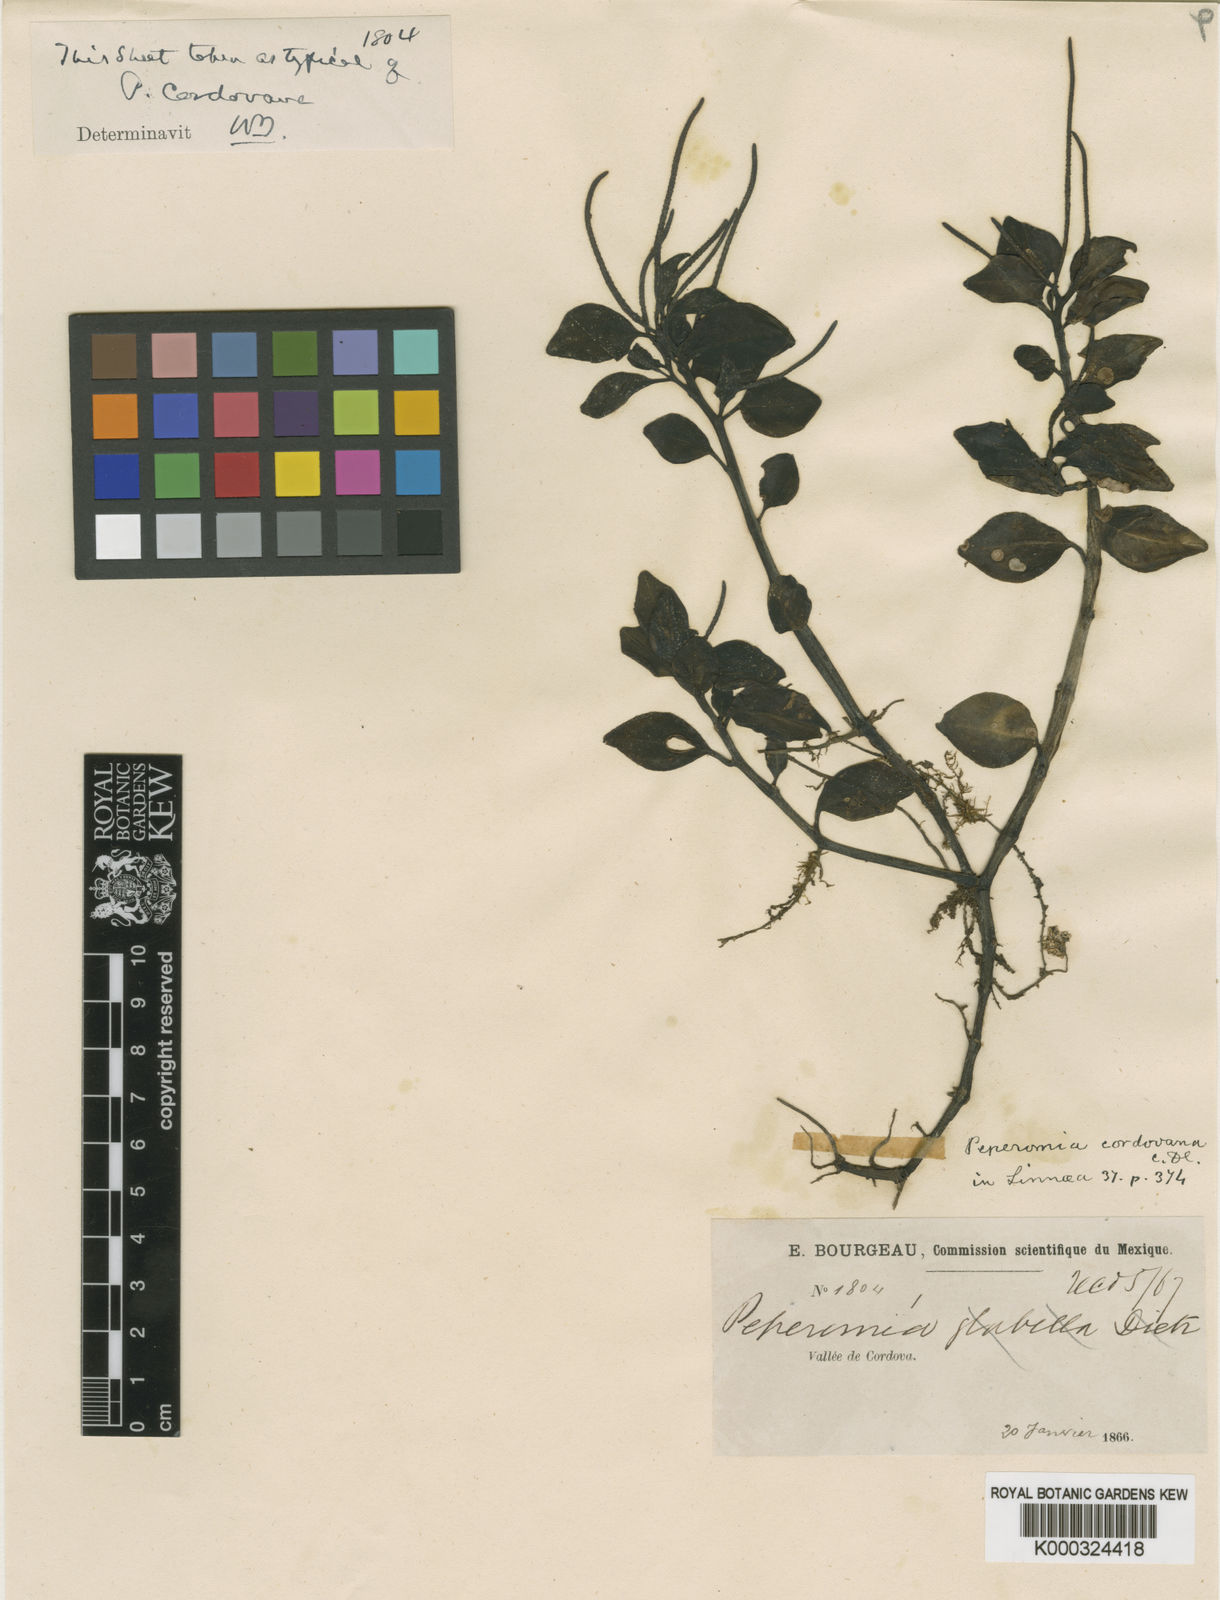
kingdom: Plantae
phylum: Tracheophyta
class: Magnoliopsida
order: Piperales
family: Piperaceae
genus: Peperomia
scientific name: Peperomia cordovana
